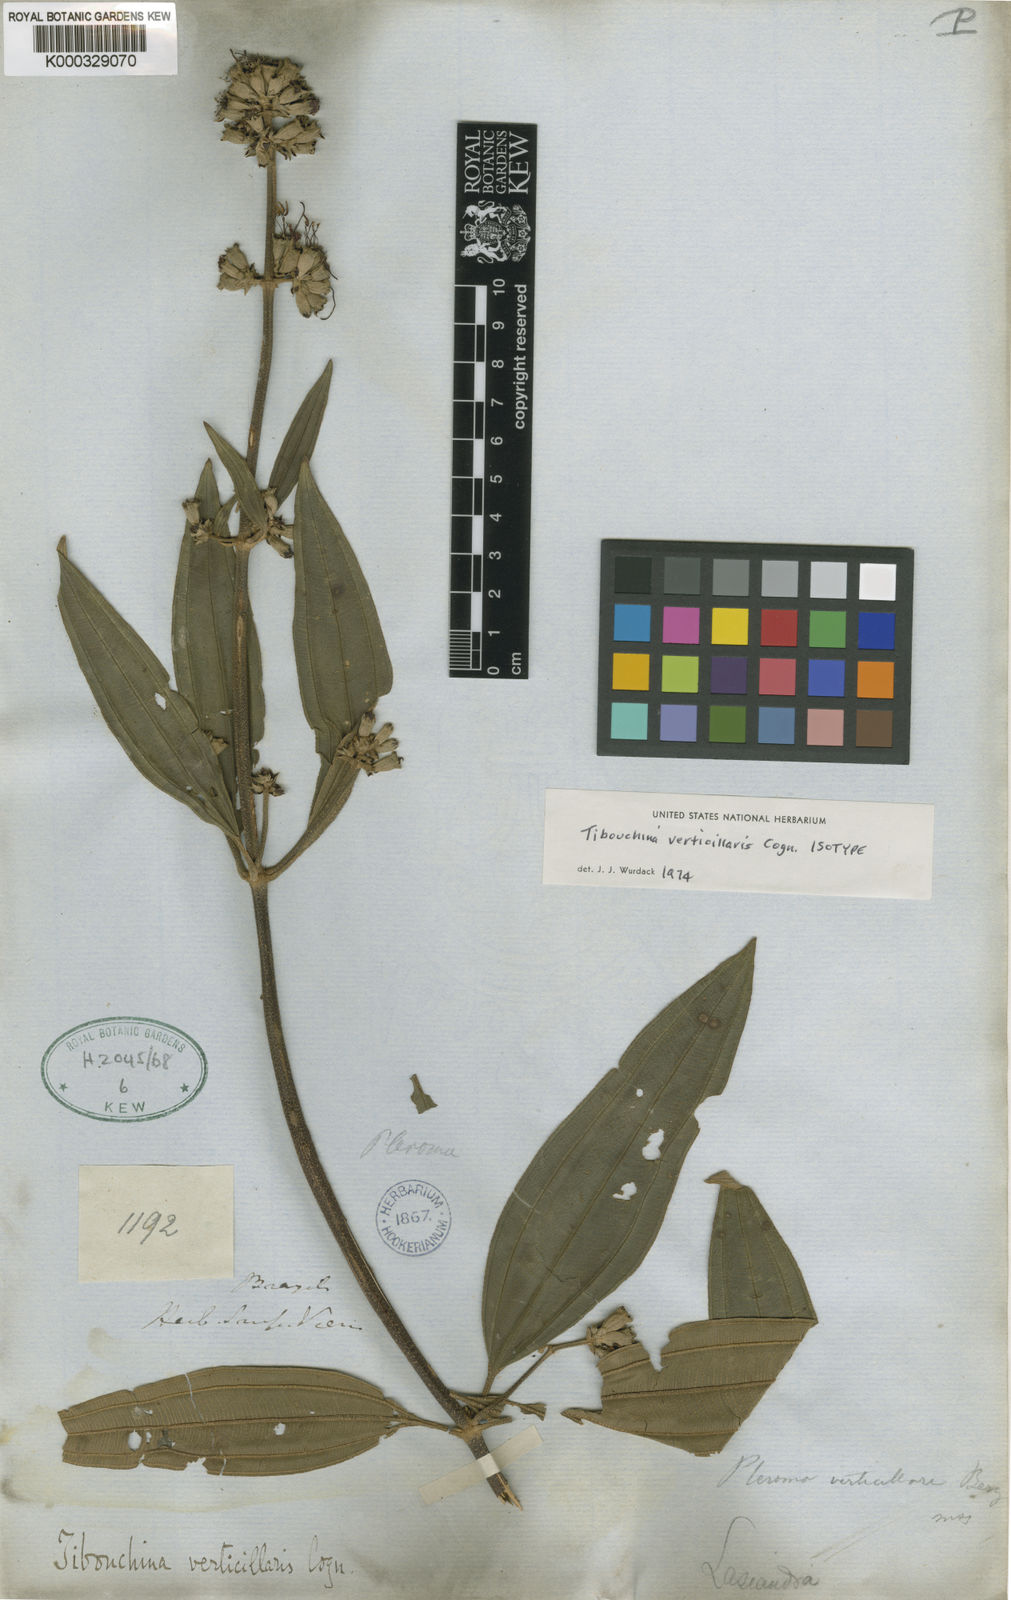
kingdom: Plantae
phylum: Tracheophyta
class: Magnoliopsida
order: Myrtales
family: Melastomataceae
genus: Tibouchina
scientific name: Tibouchina verticillaris
